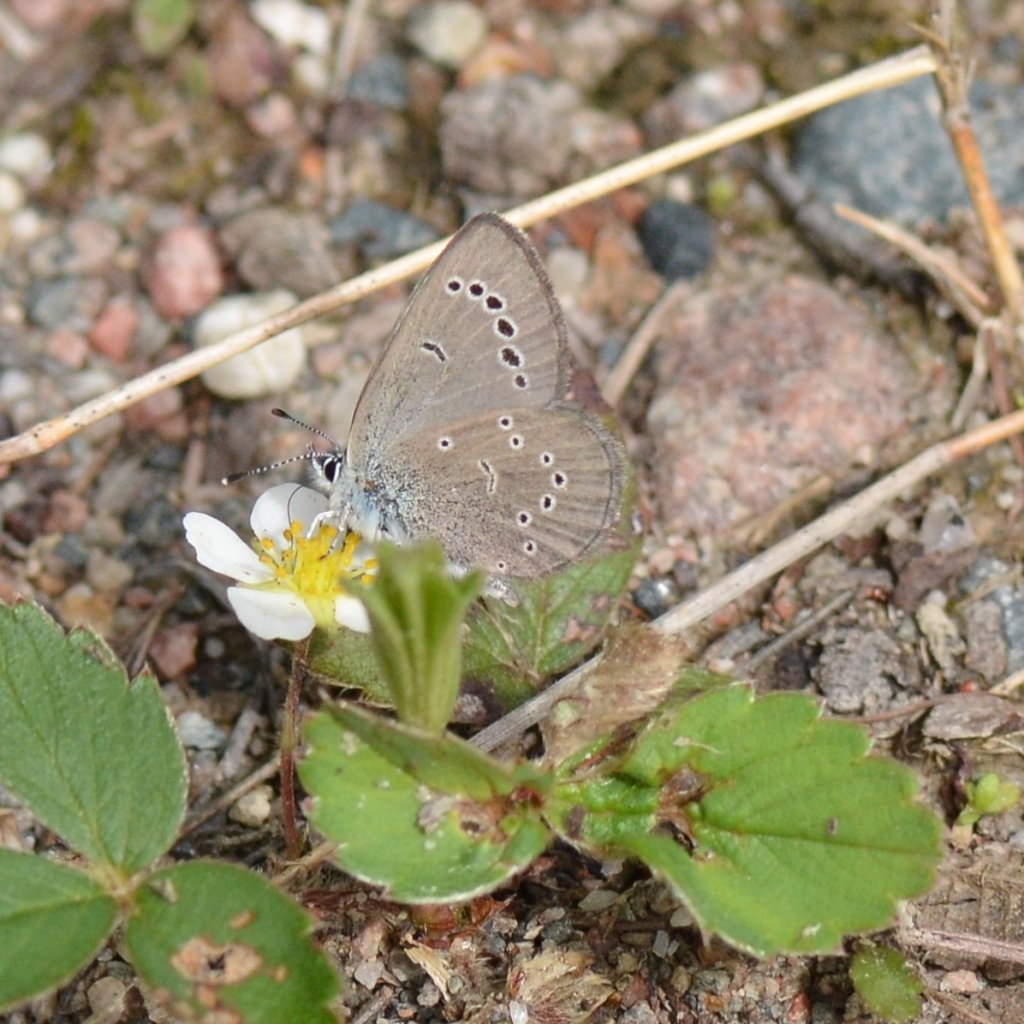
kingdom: Animalia
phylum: Arthropoda
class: Insecta
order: Lepidoptera
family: Lycaenidae
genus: Glaucopsyche
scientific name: Glaucopsyche lygdamus
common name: Silvery Blue
